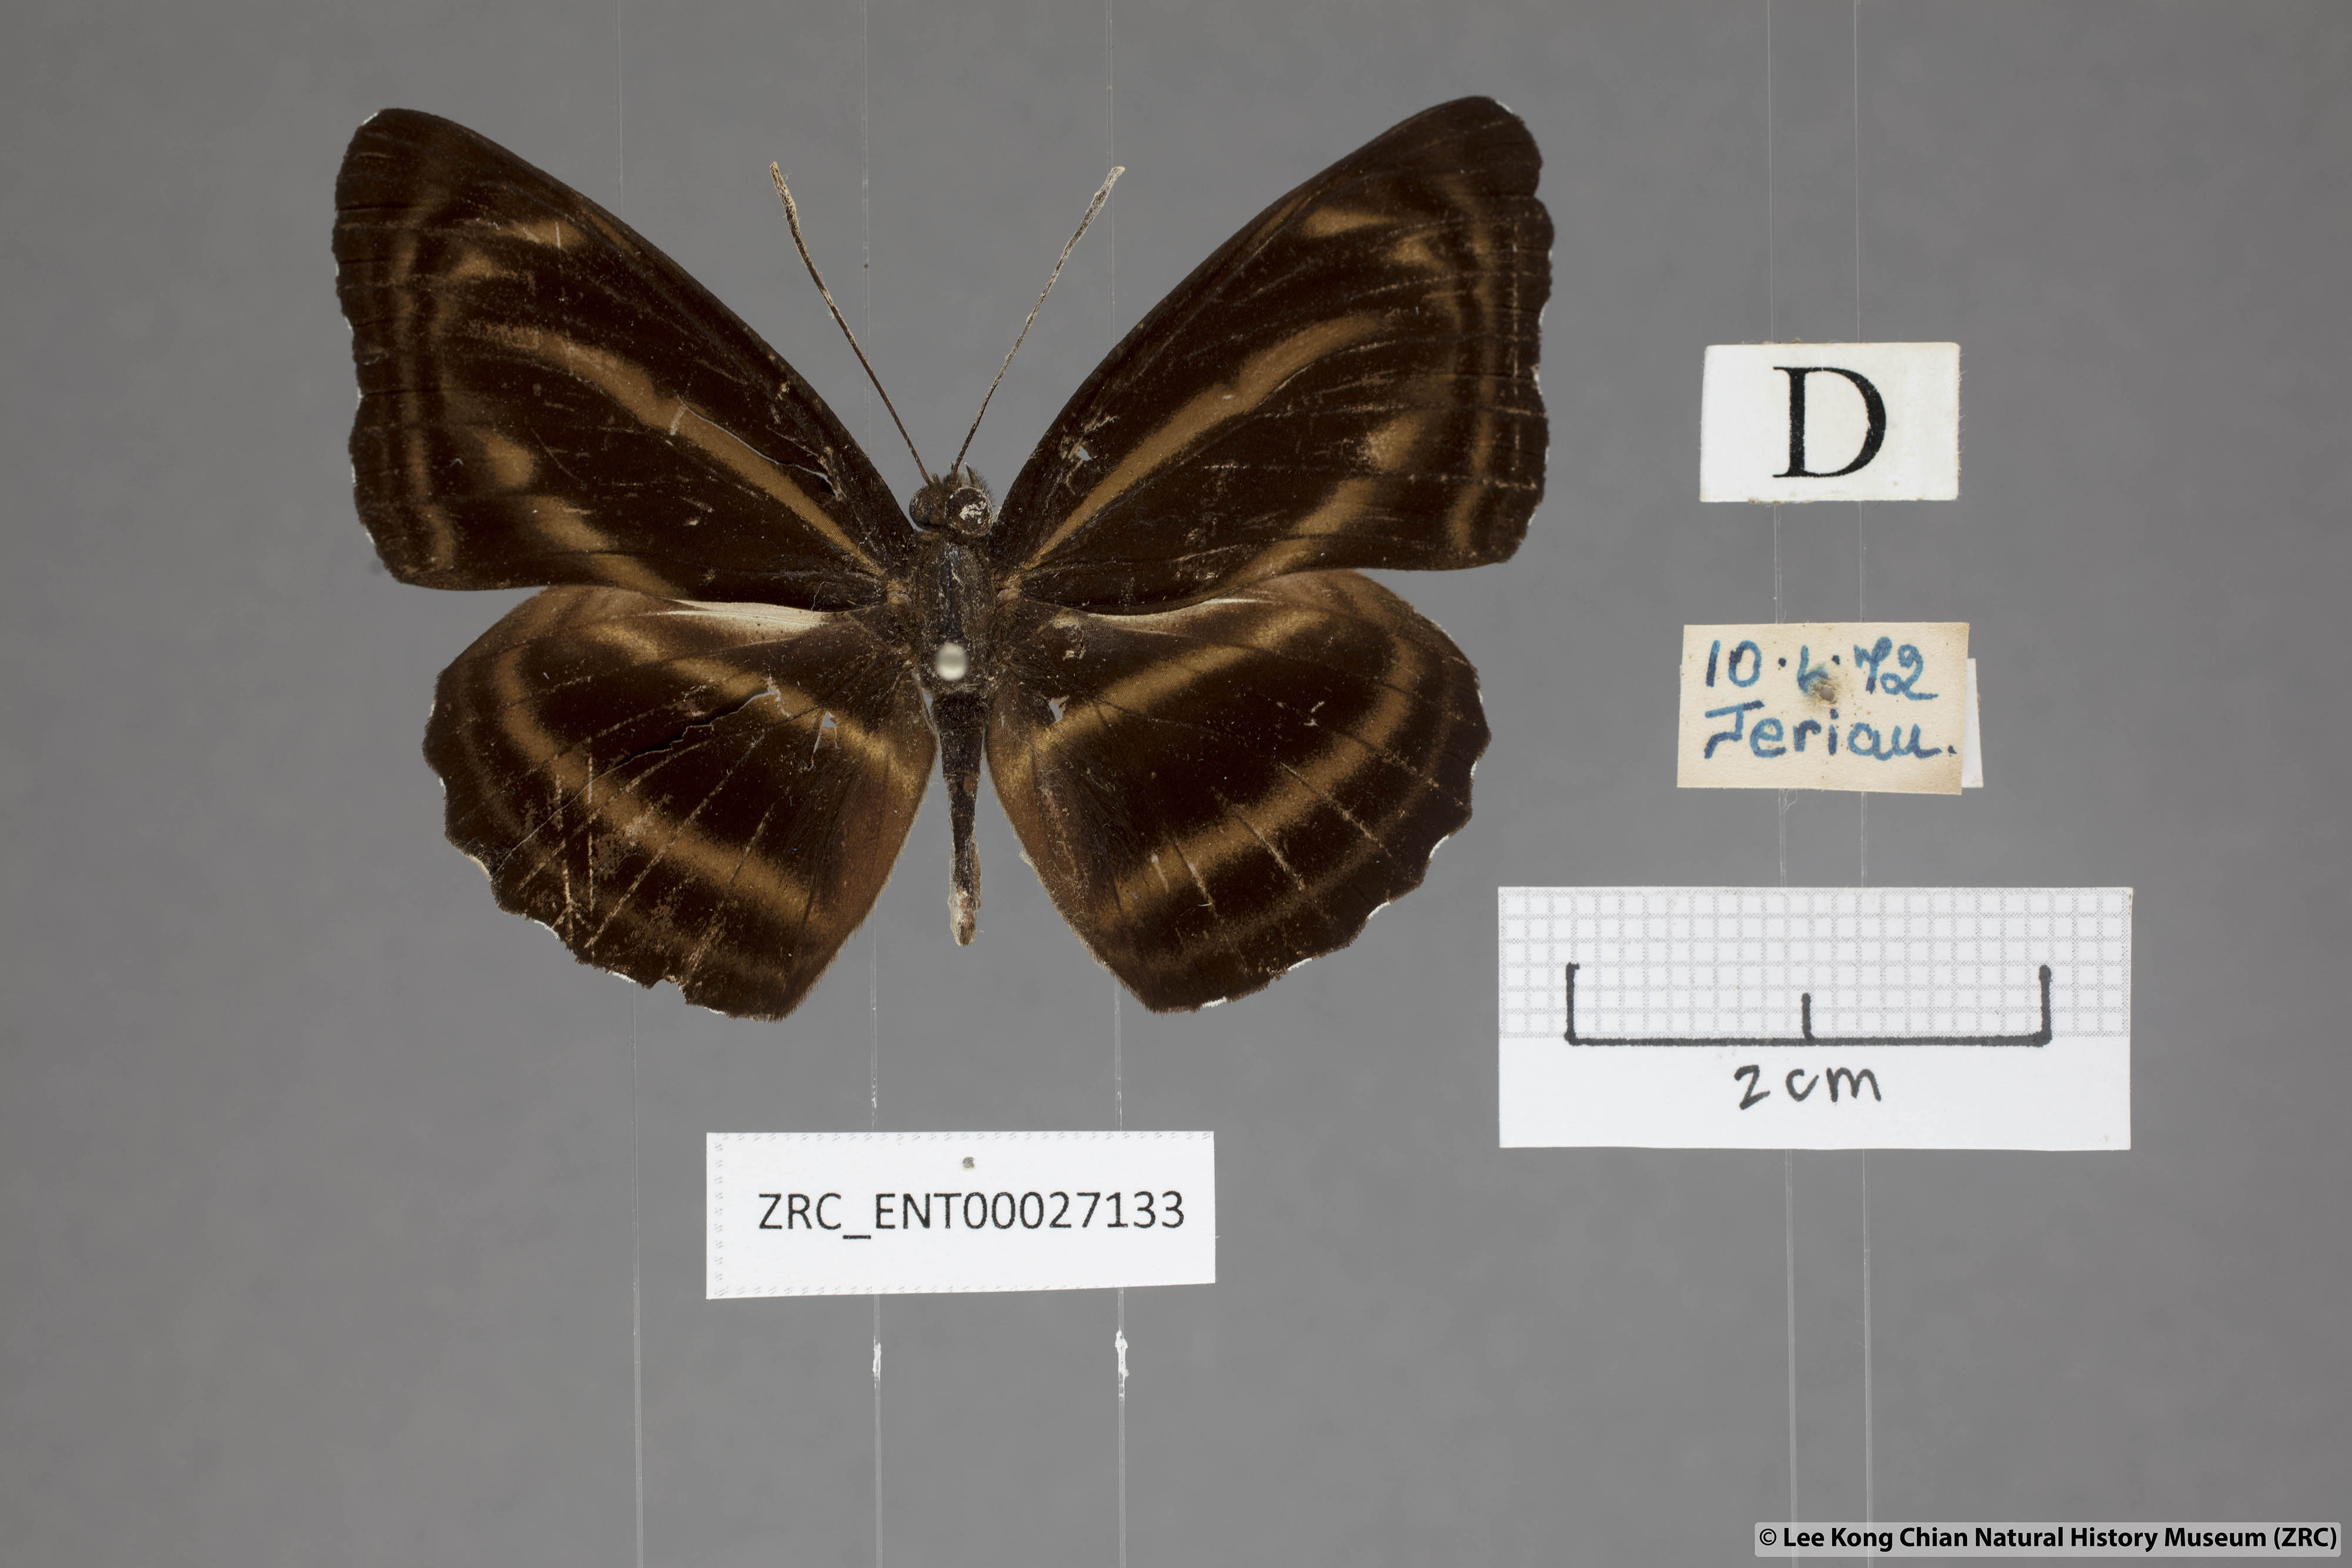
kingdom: Animalia
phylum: Arthropoda
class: Insecta
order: Lepidoptera
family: Nymphalidae
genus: Neptis
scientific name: Neptis anjana
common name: Rich sailer
